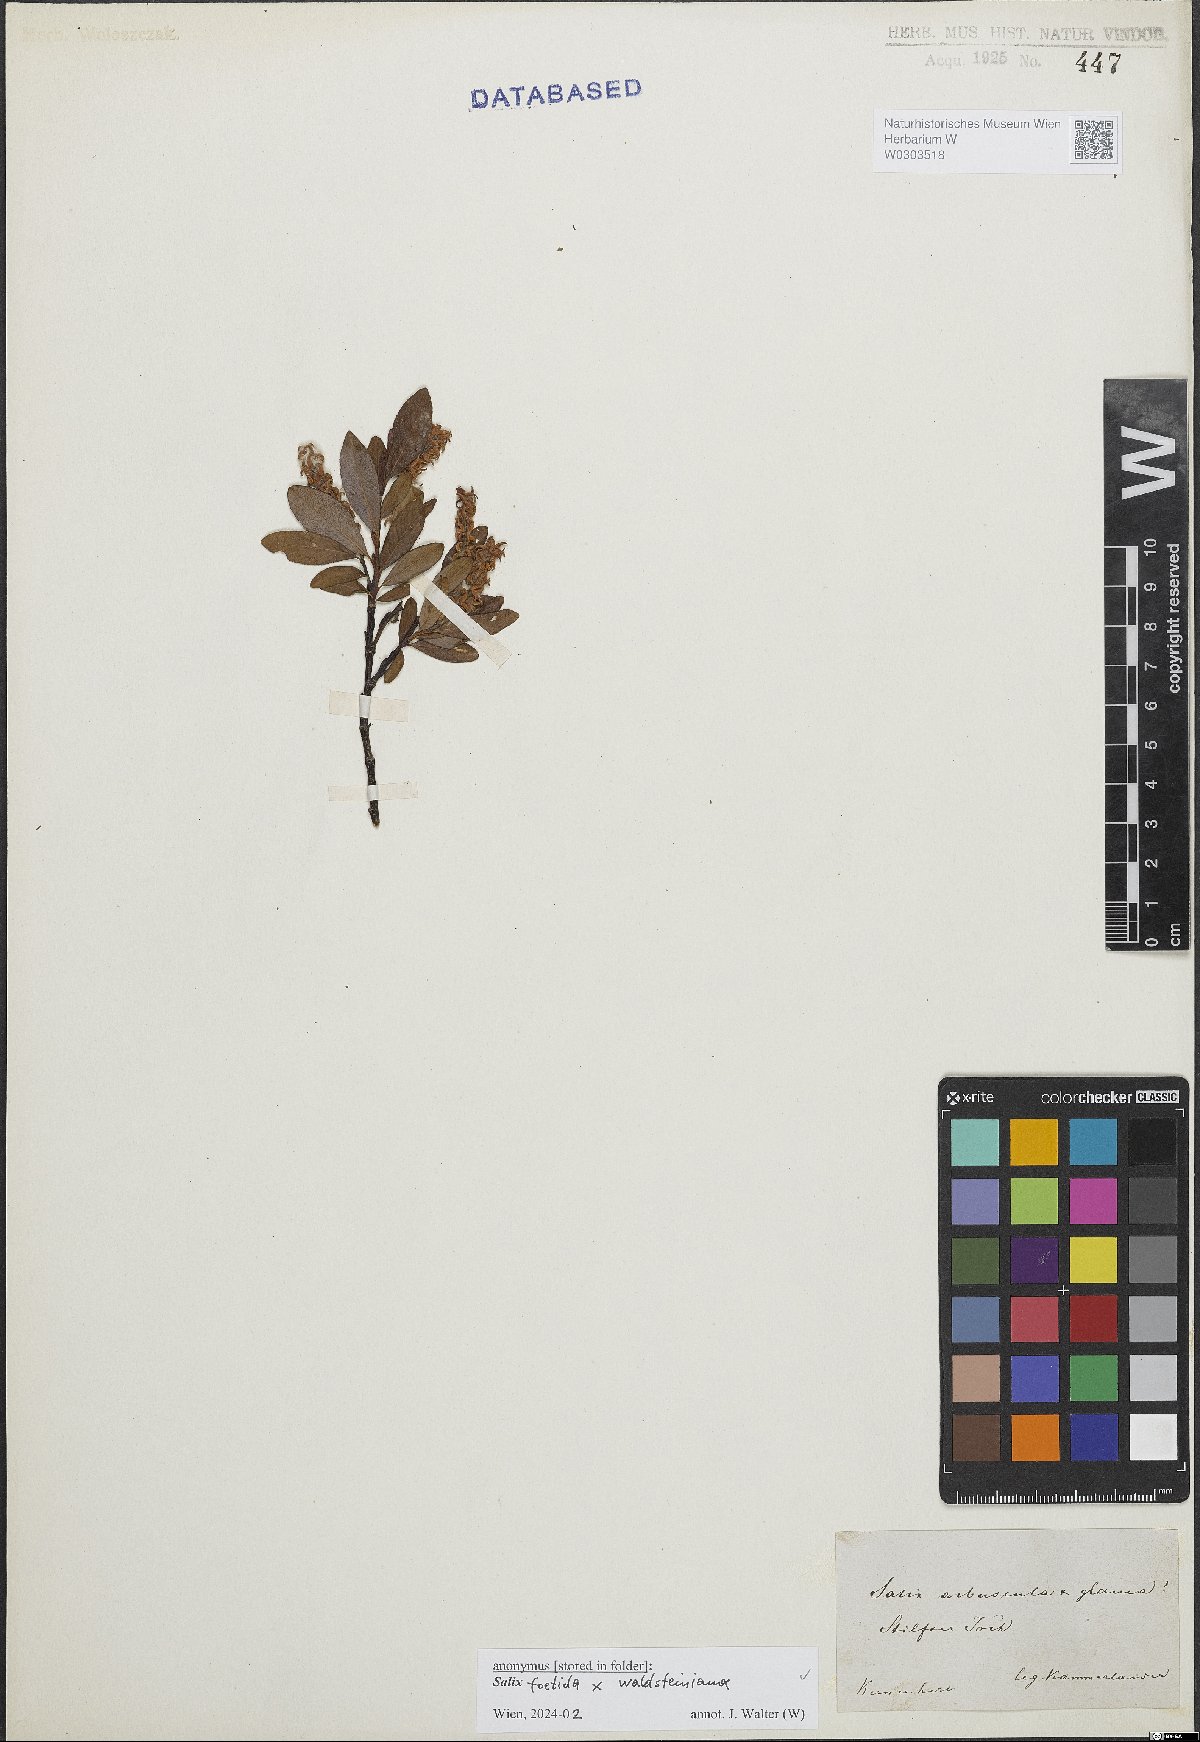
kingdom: Plantae
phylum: Tracheophyta
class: Magnoliopsida
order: Malpighiales
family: Salicaceae
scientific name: Salicaceae
